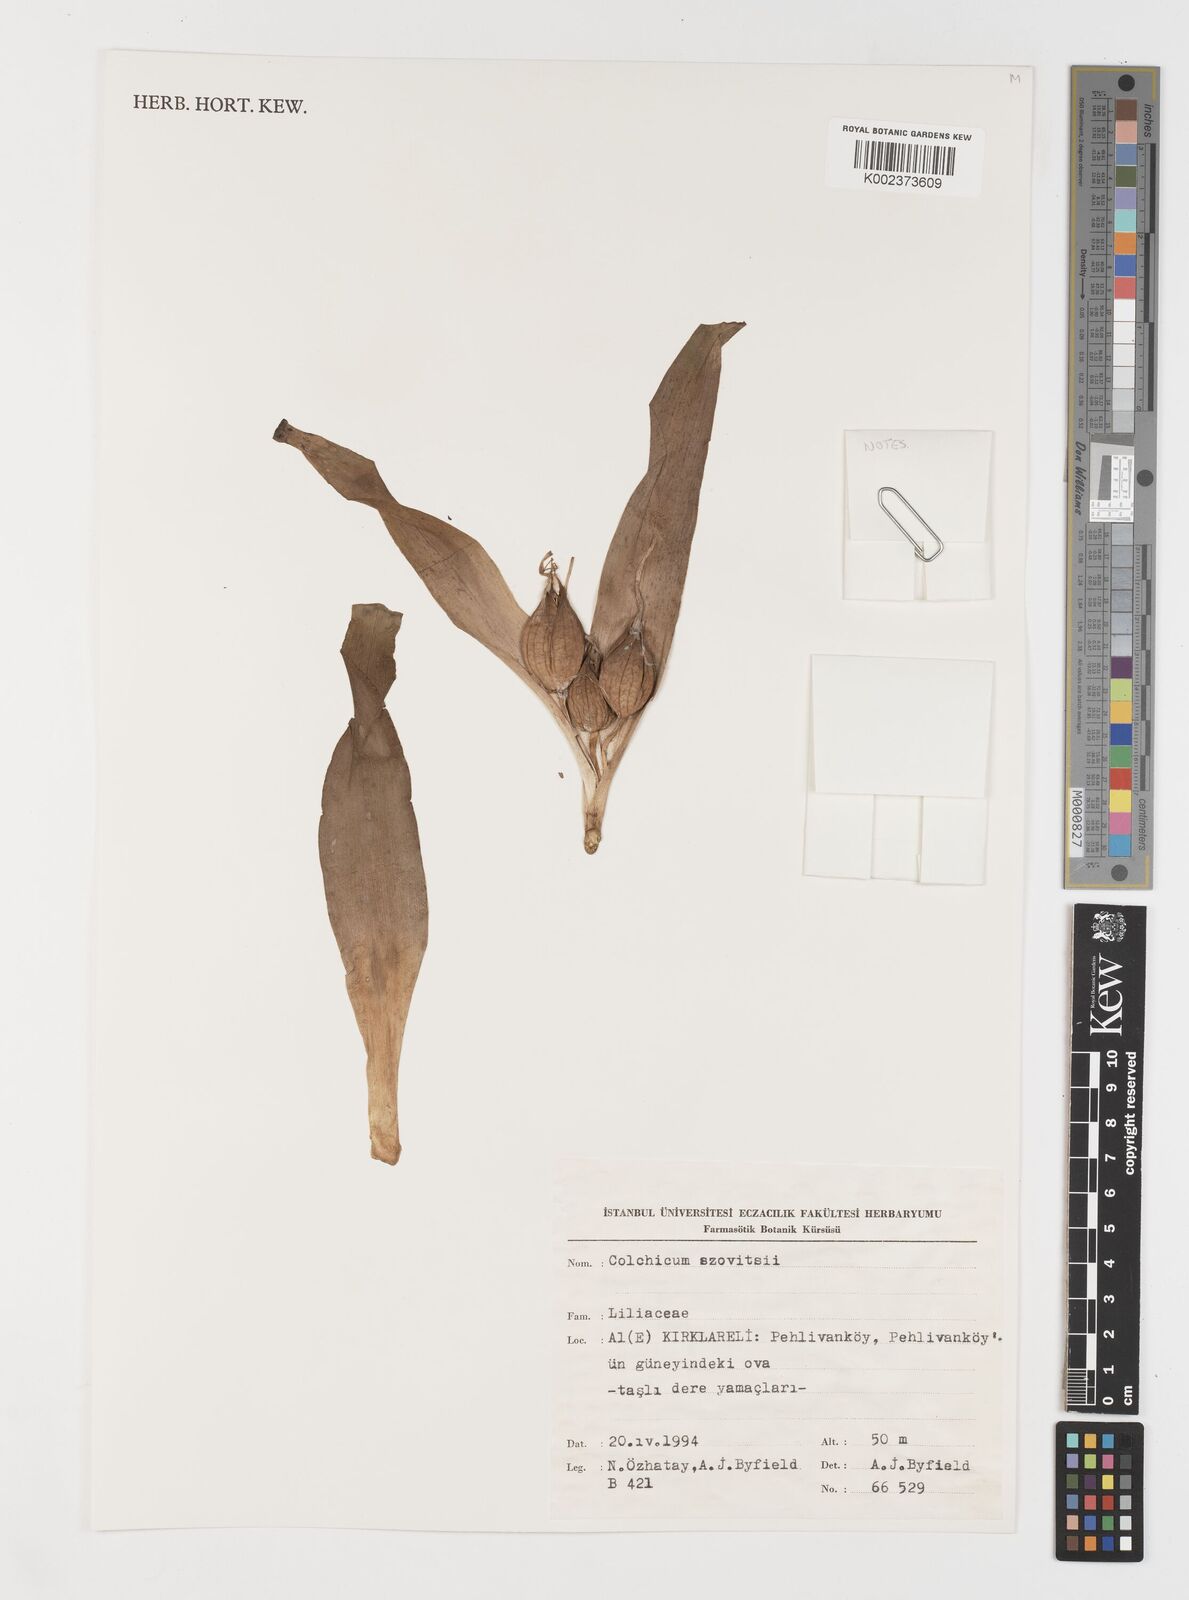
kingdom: Plantae
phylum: Tracheophyta
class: Liliopsida
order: Liliales
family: Colchicaceae
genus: Colchicum
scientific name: Colchicum szovitsii
